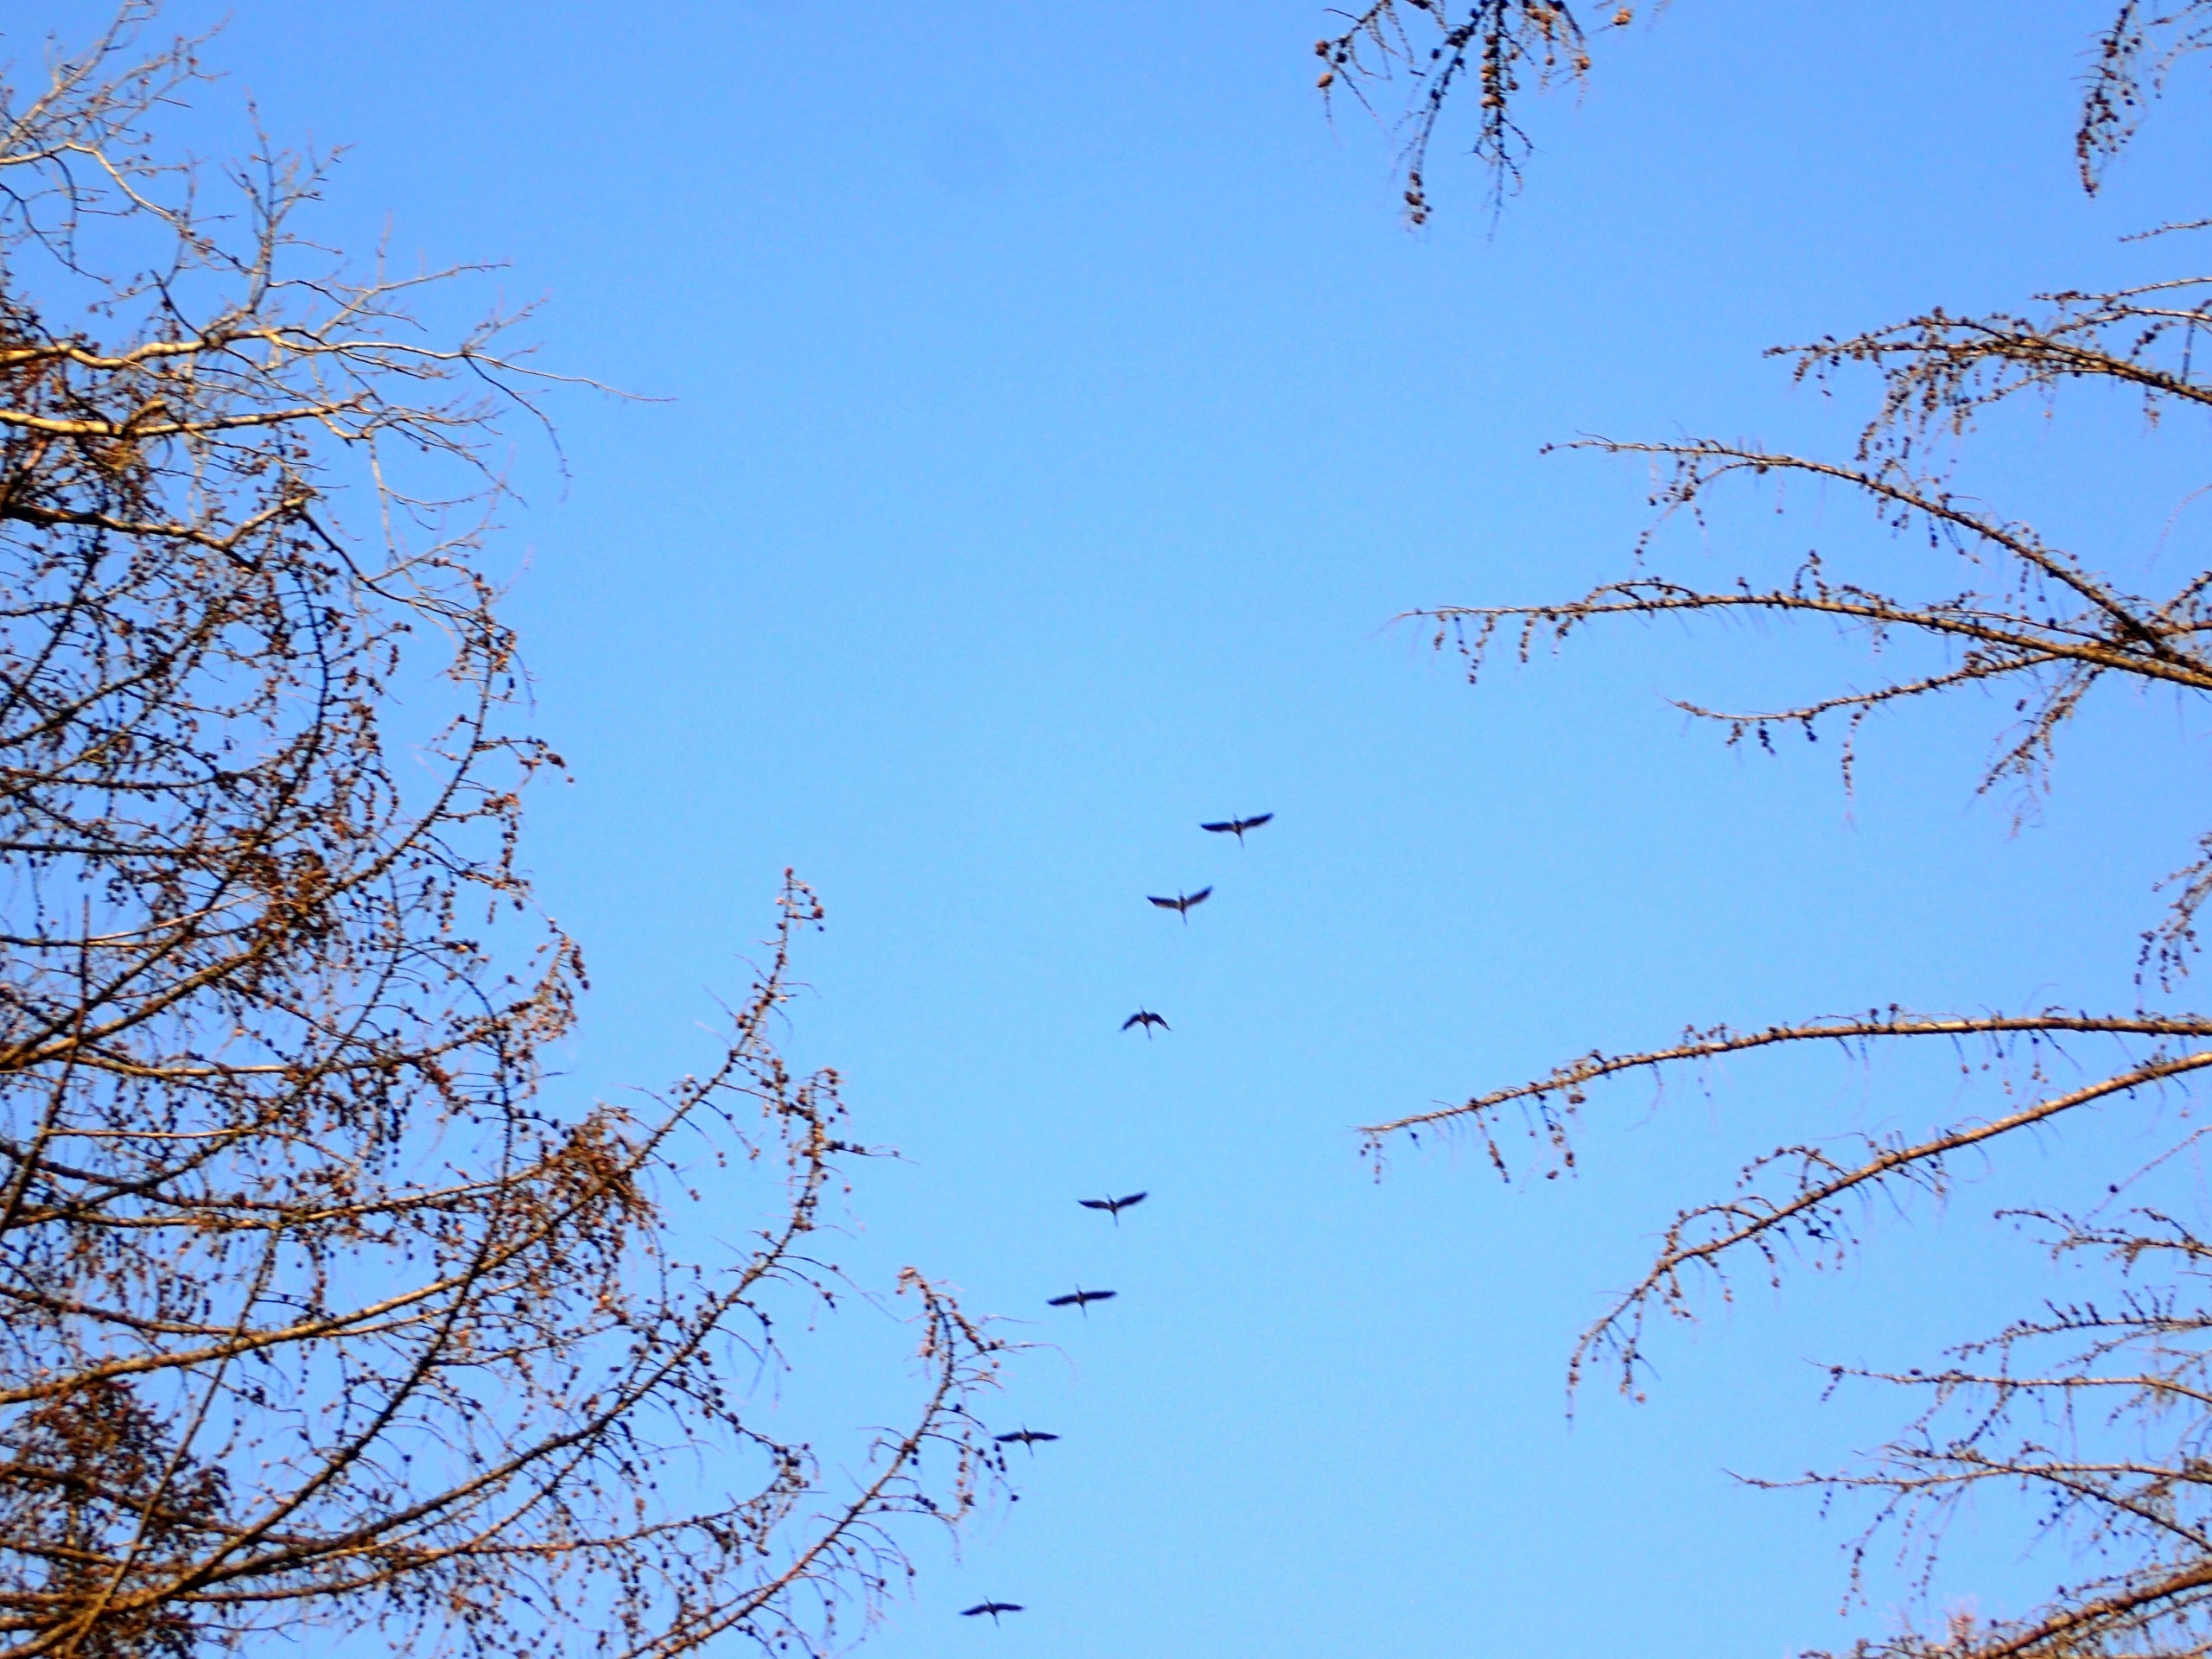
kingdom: Animalia
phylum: Chordata
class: Aves
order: Gruiformes
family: Gruidae
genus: Grus
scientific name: Grus grus
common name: Trane
